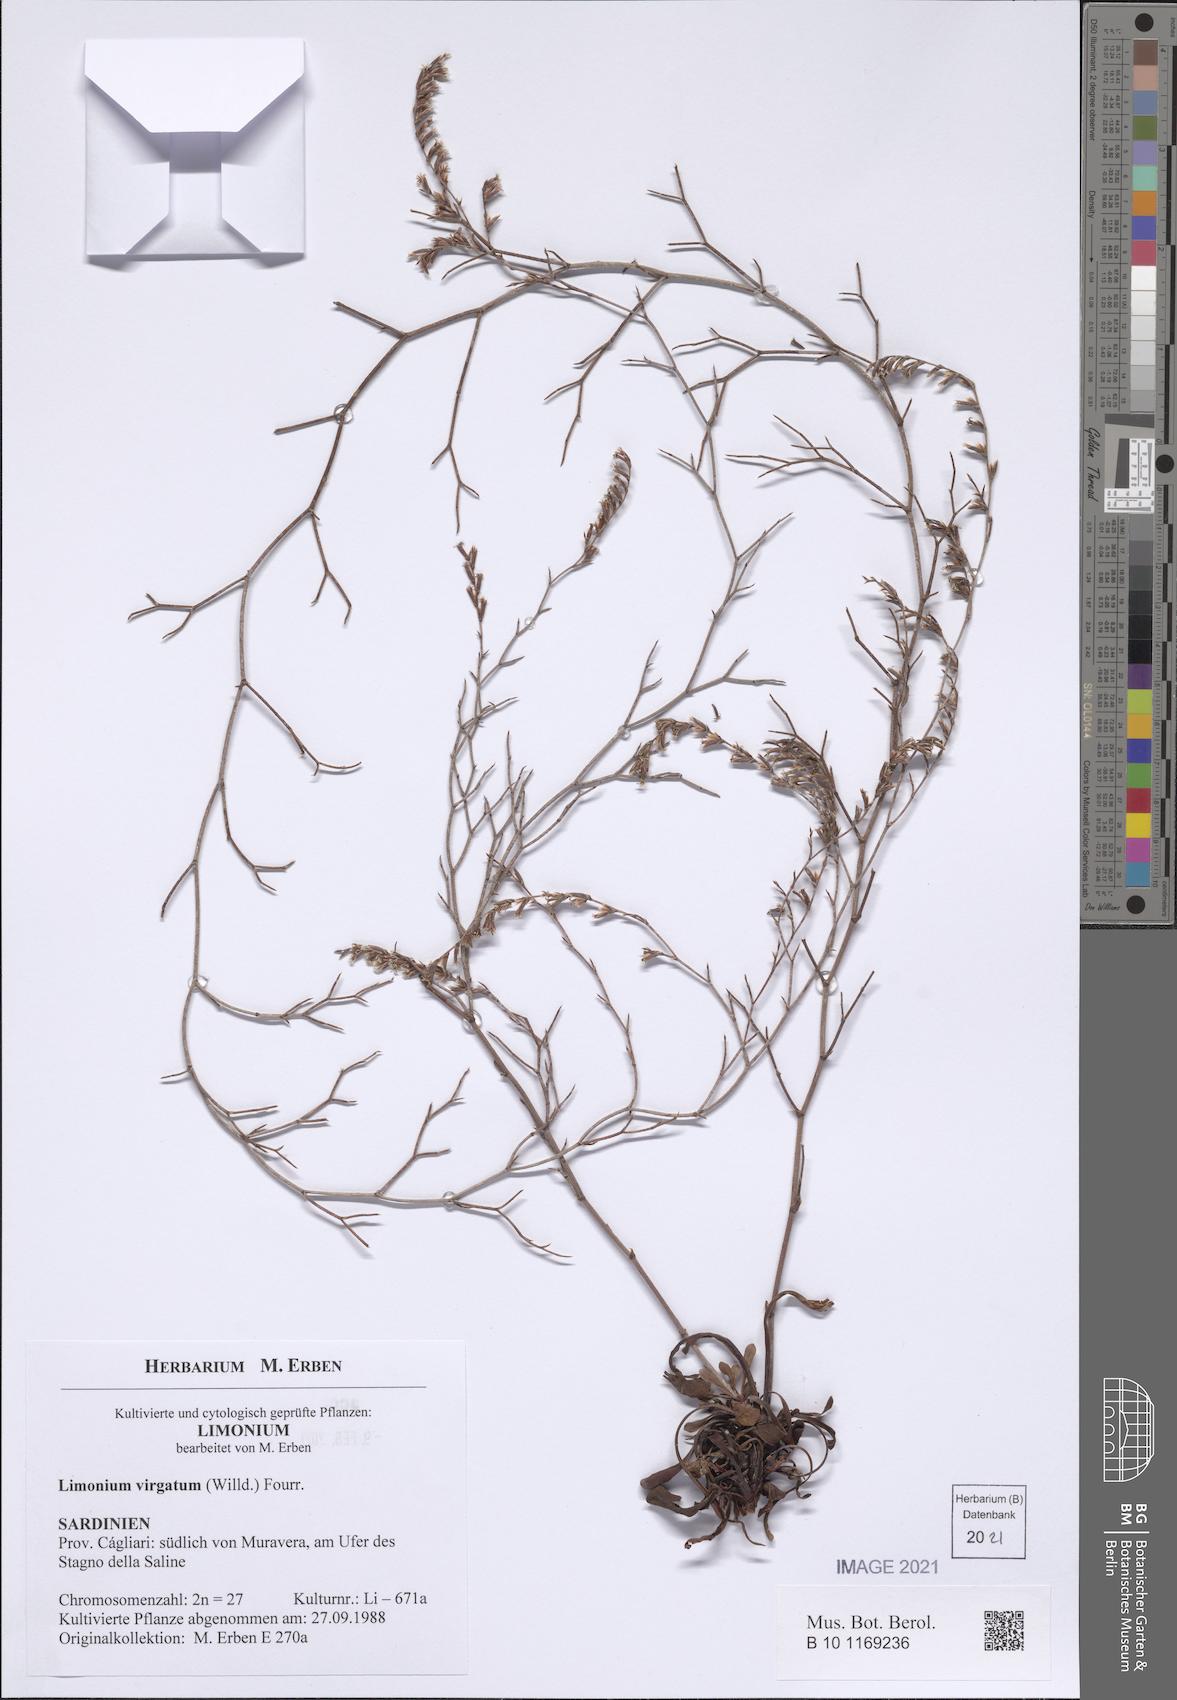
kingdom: Plantae
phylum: Tracheophyta
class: Magnoliopsida
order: Caryophyllales
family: Plumbaginaceae
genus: Limonium
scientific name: Limonium virgatum
